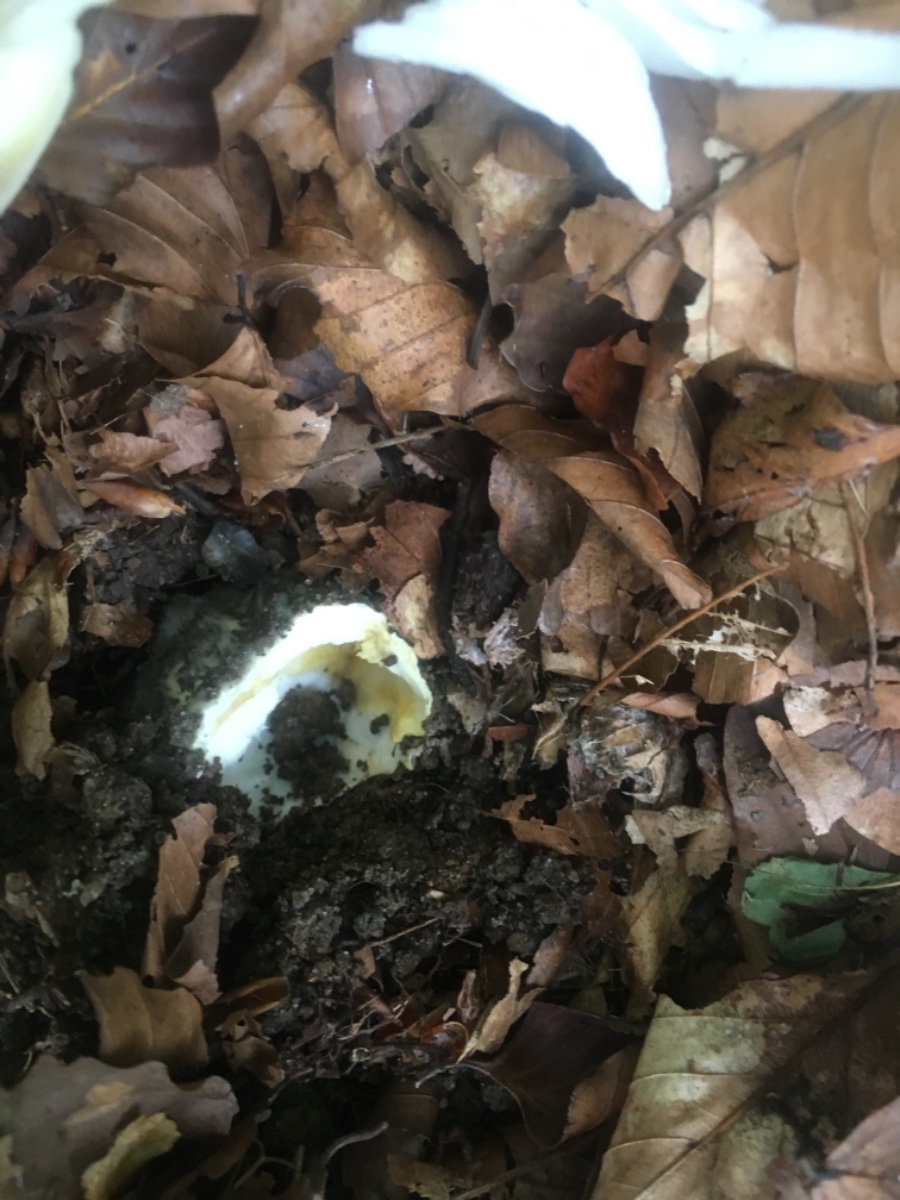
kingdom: Fungi
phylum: Basidiomycota
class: Agaricomycetes
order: Agaricales
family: Amanitaceae
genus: Amanita
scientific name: Amanita phalloides
